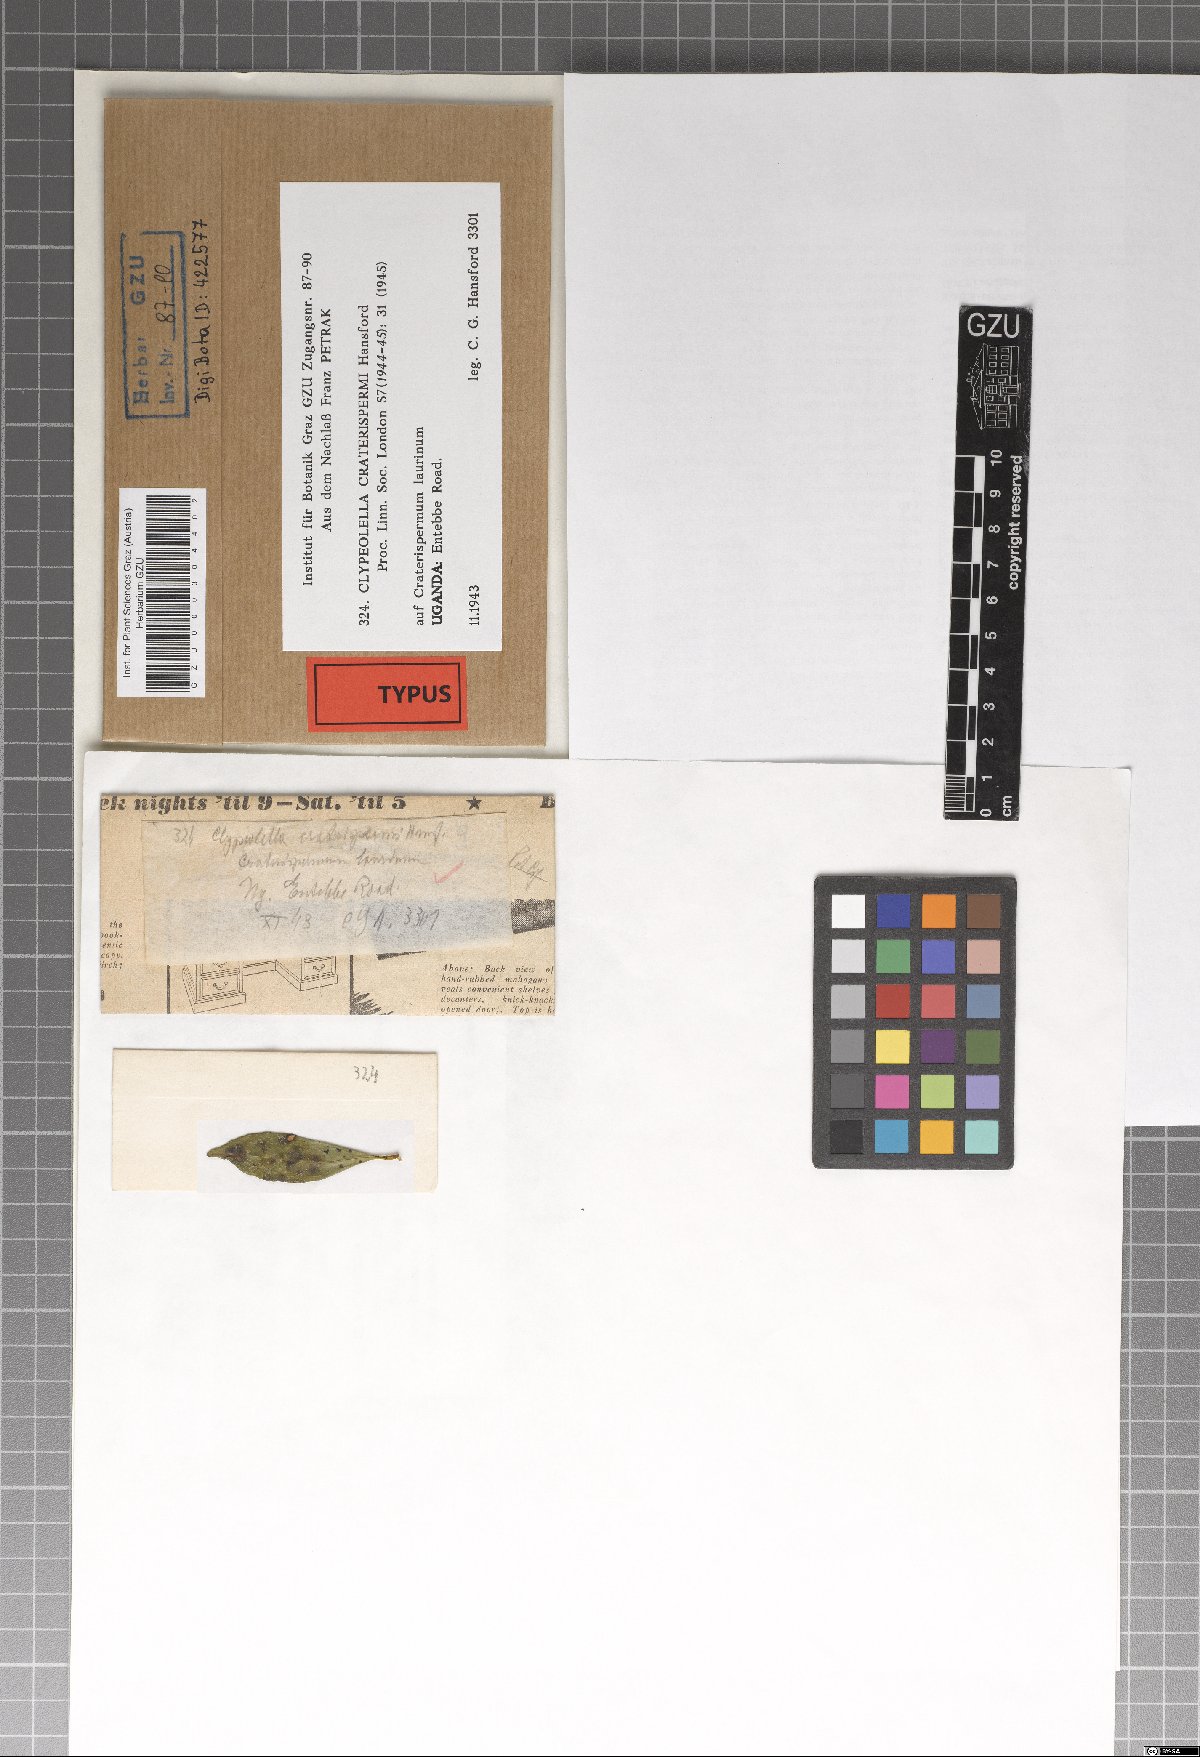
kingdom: Fungi
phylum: Ascomycota
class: Dothideomycetes
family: Englerulaceae
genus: Schiffnerula
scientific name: Schiffnerula craterispermi
